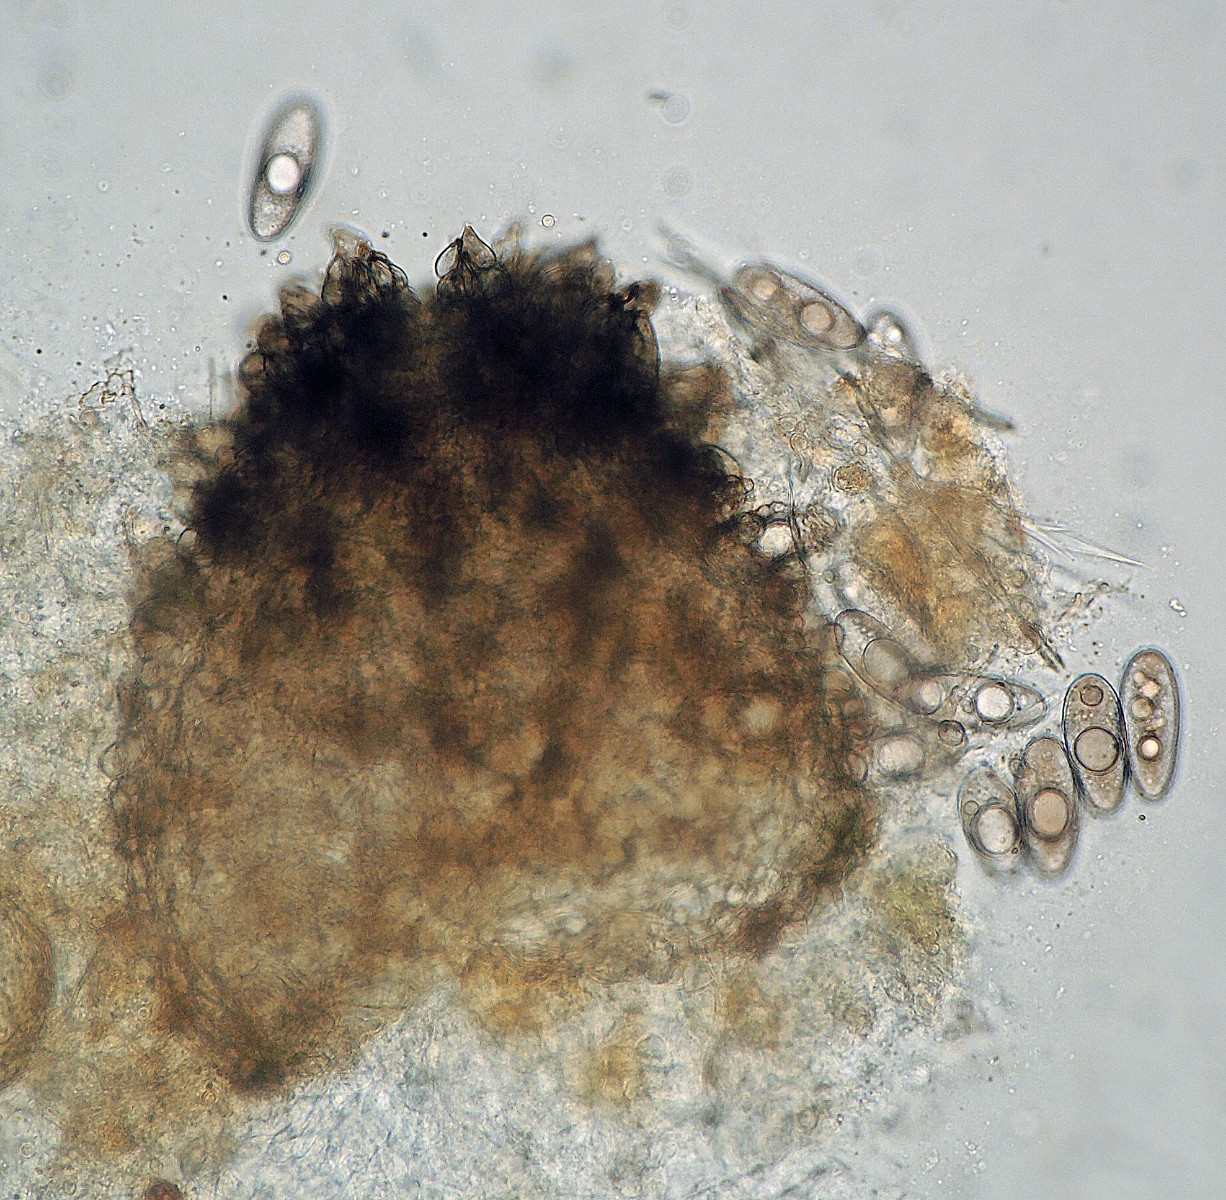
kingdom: Fungi
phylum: Ascomycota
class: Sordariomycetes
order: Sordariales
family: Neoschizotheciaceae
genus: Neoschizothecium
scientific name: Neoschizothecium tetrasporum
